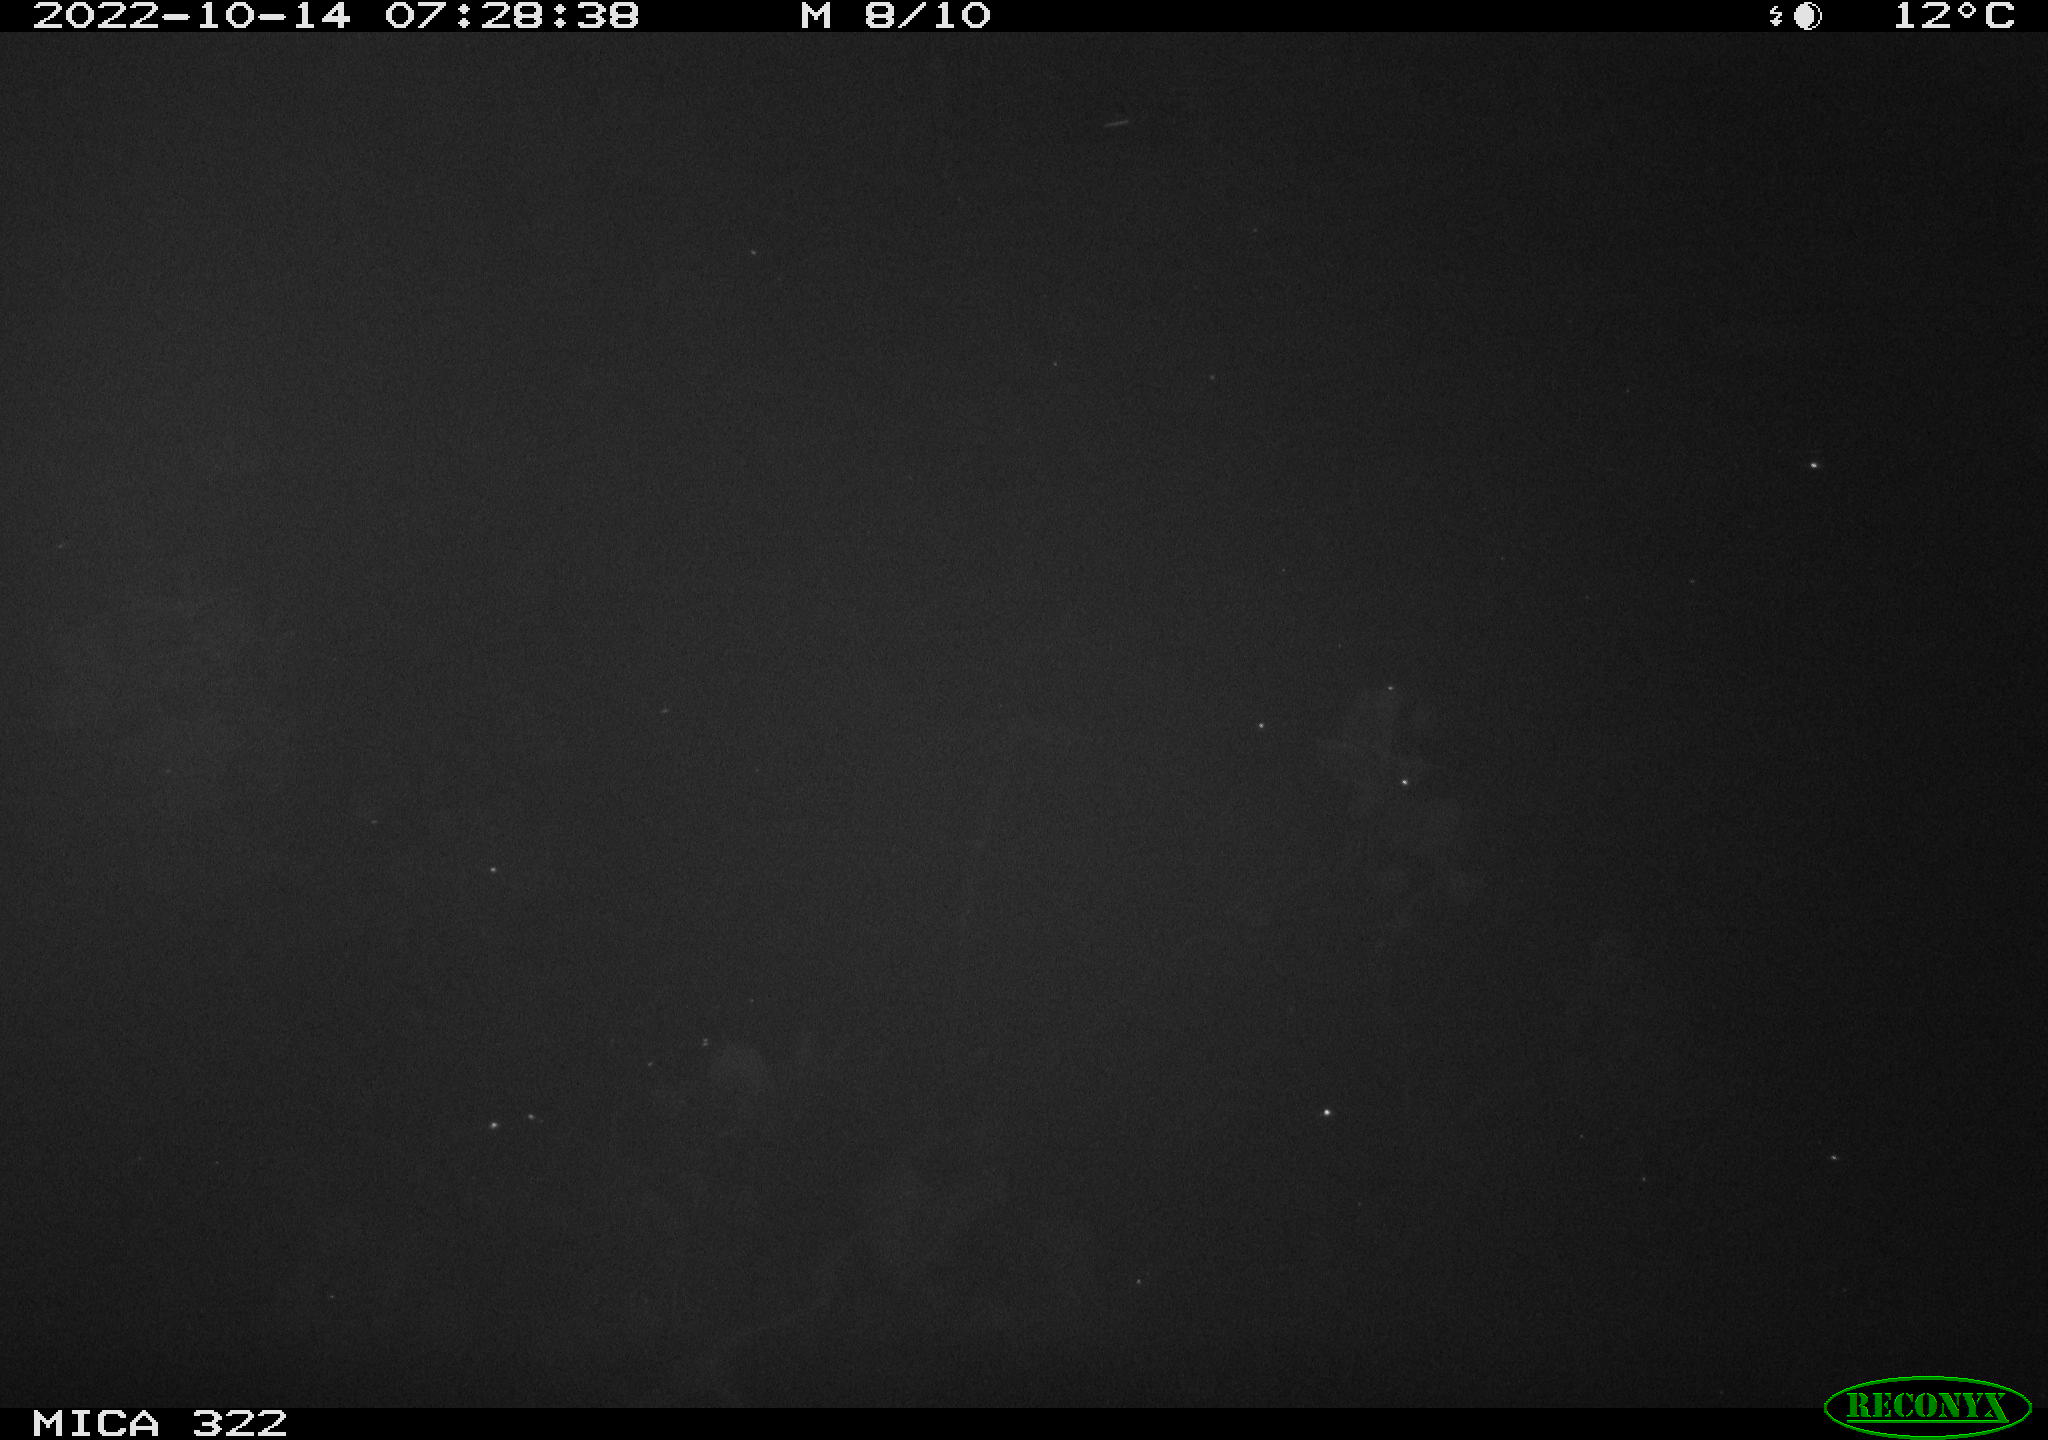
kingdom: Animalia
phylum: Chordata
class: Aves
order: Anseriformes
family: Anatidae
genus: Anas
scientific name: Anas
